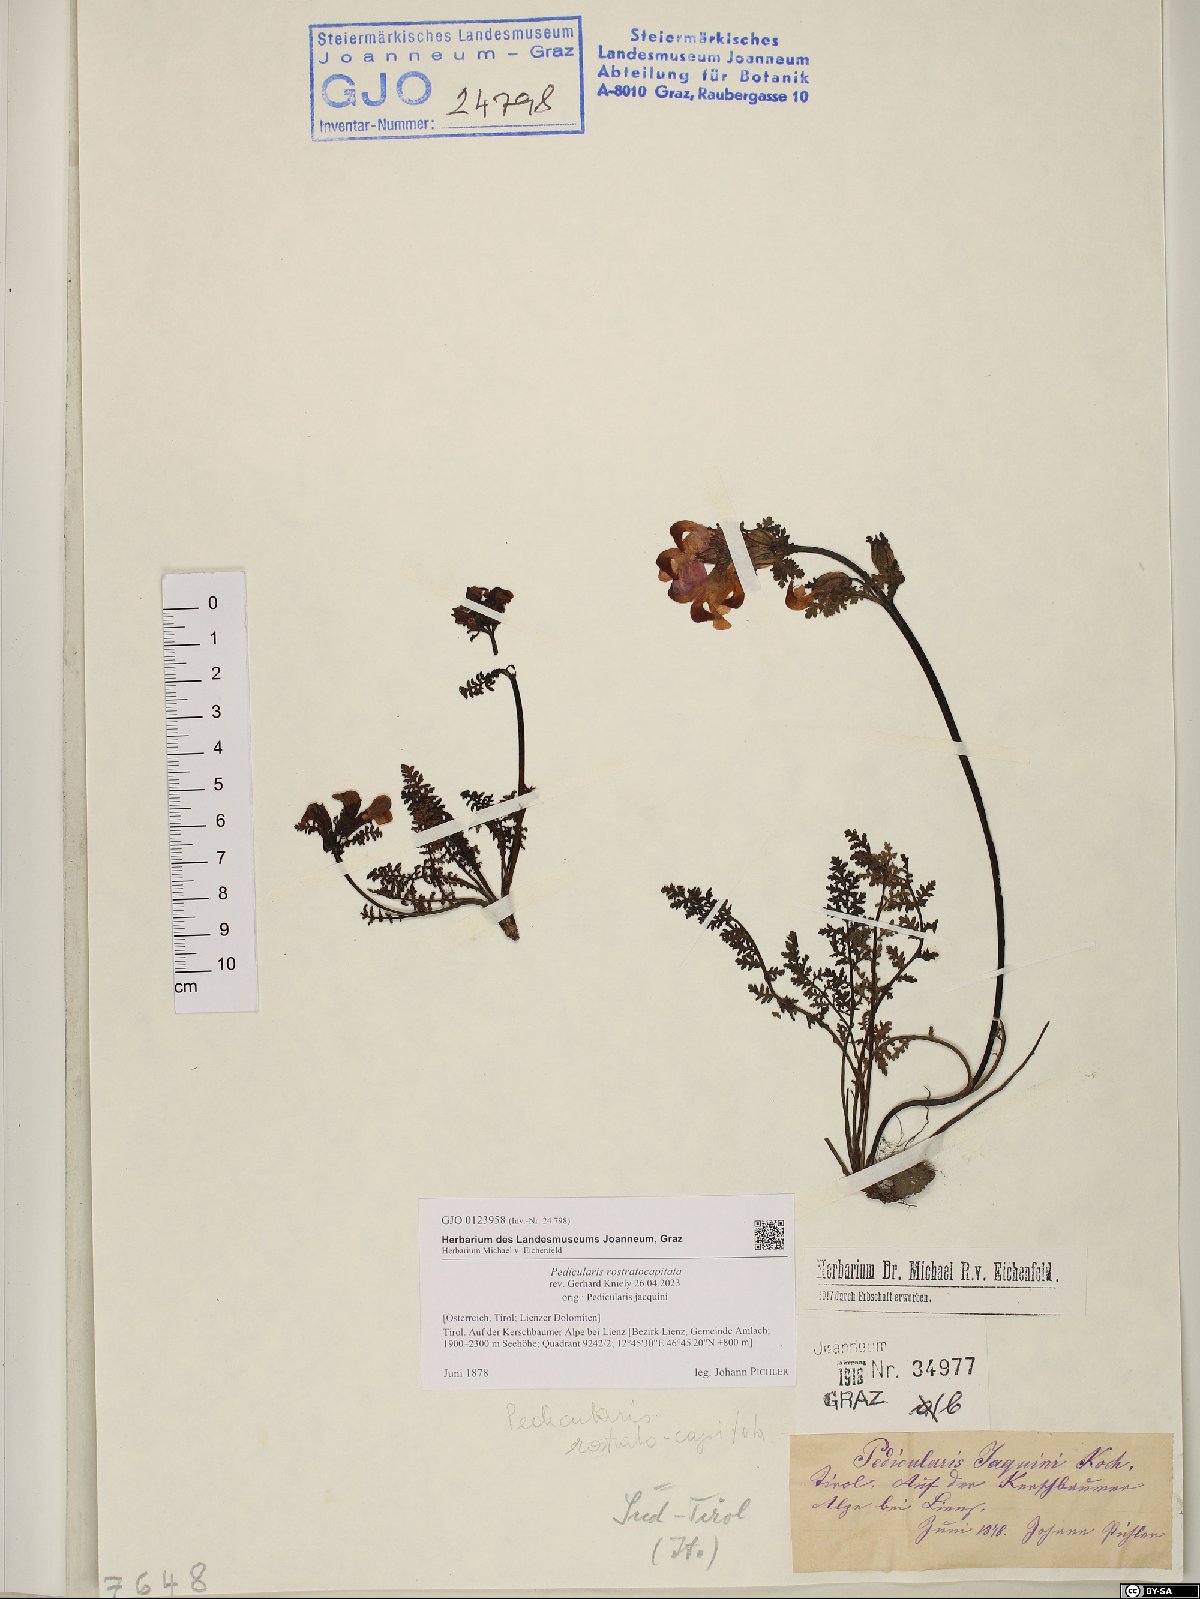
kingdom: Plantae
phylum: Tracheophyta
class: Magnoliopsida
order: Lamiales
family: Orobanchaceae
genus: Pedicularis
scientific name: Pedicularis rostratocapitata
